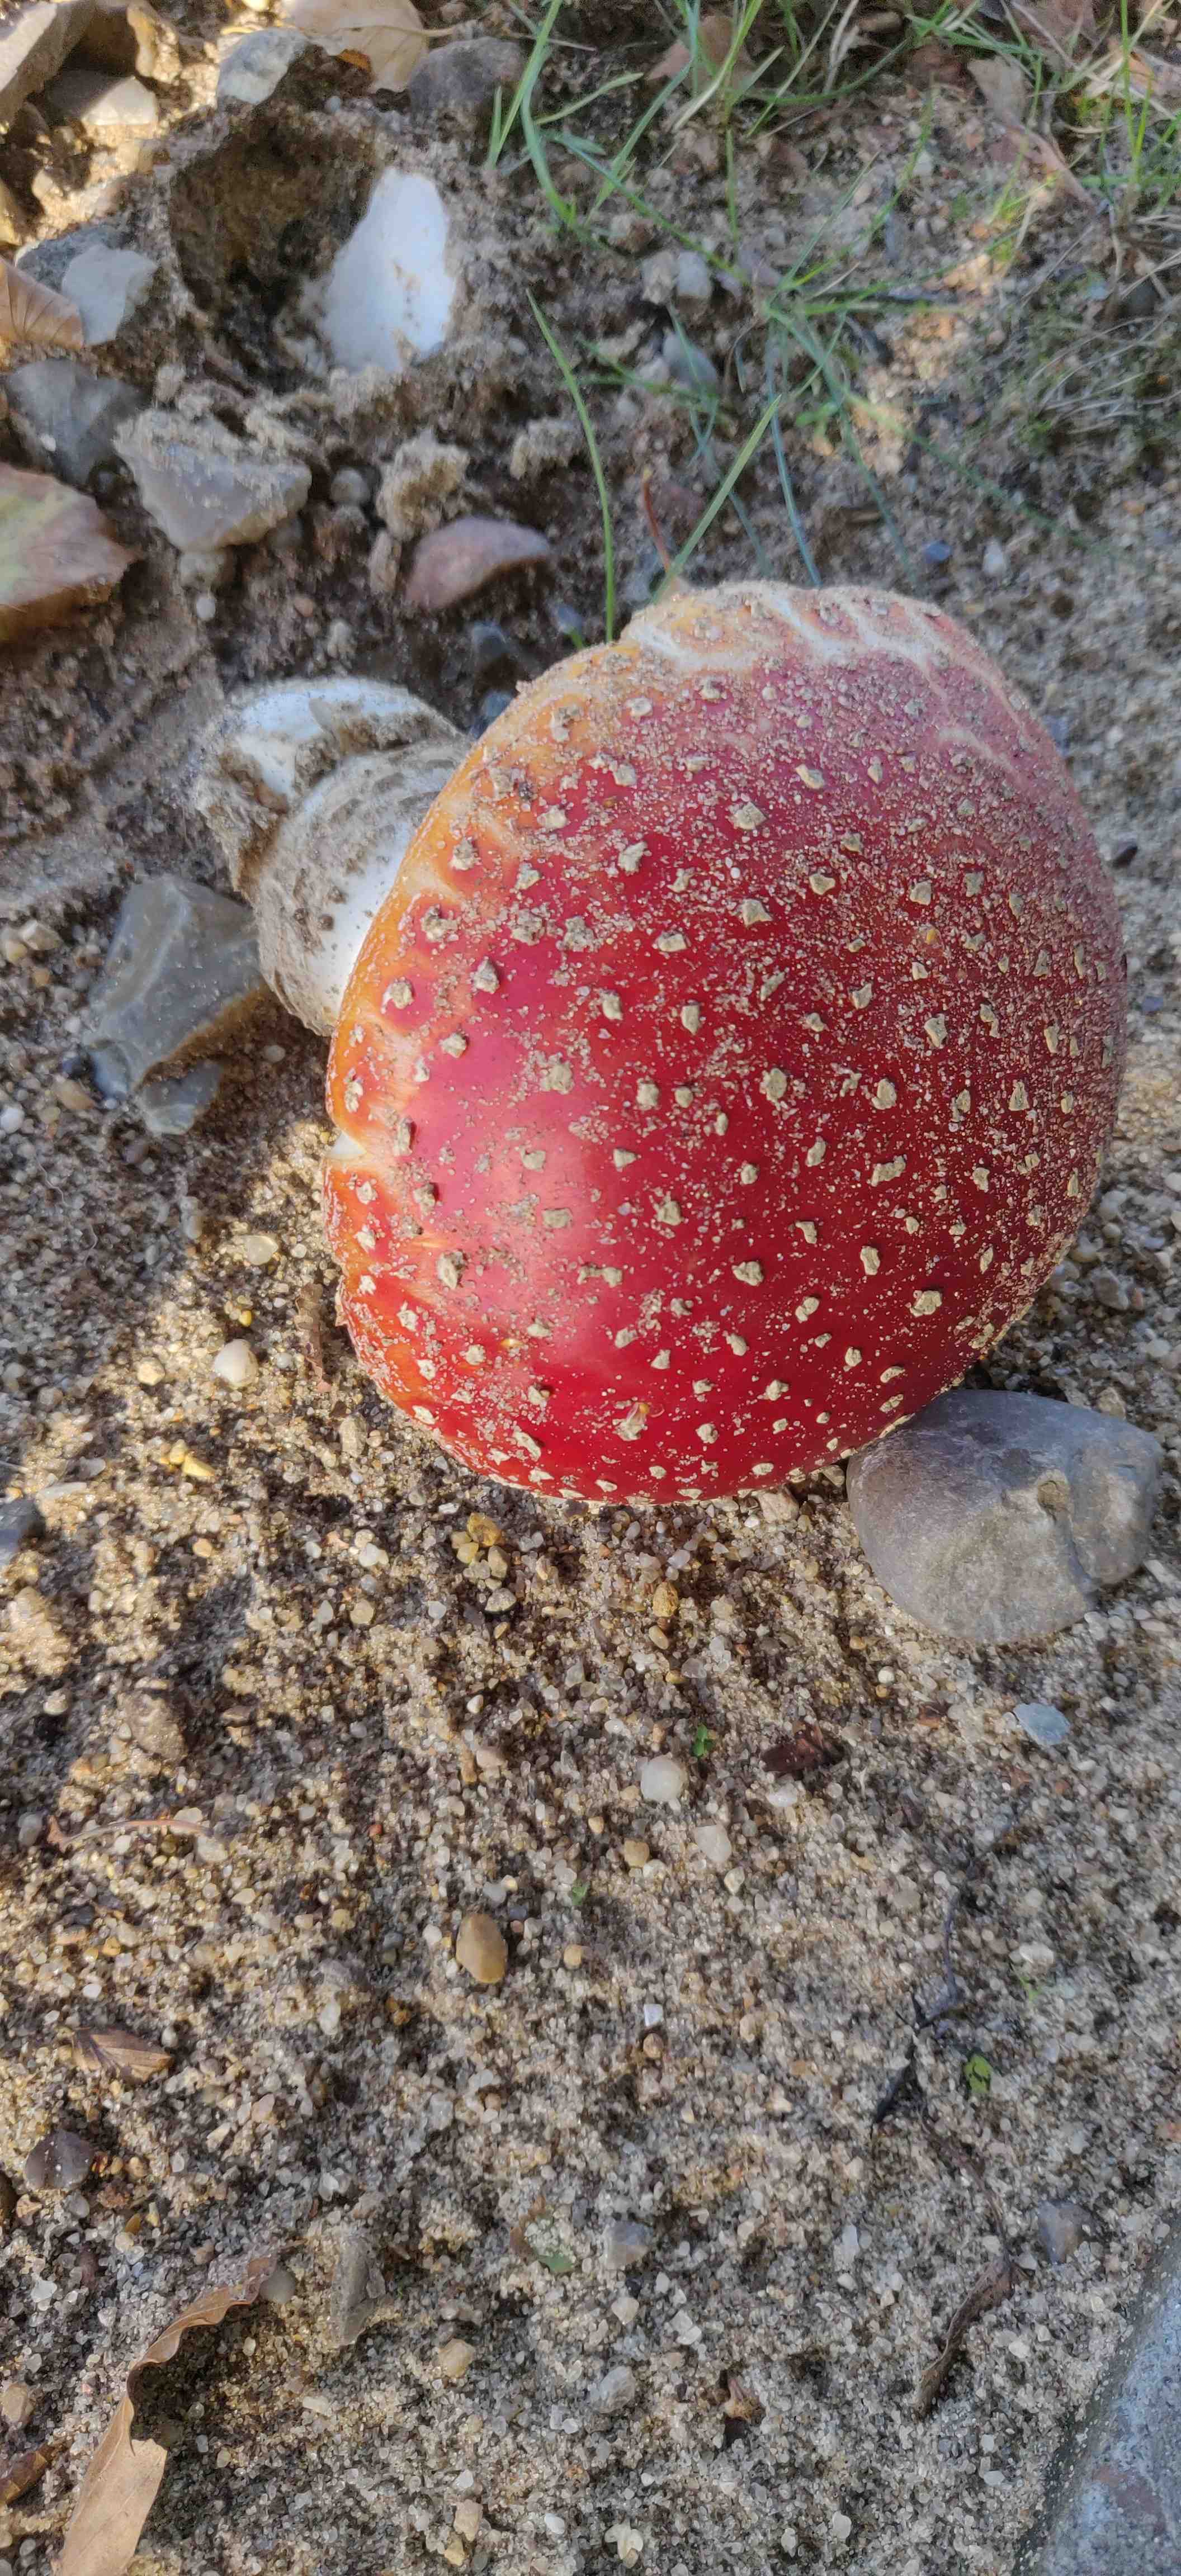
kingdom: Fungi
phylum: Basidiomycota
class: Agaricomycetes
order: Agaricales
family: Amanitaceae
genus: Amanita
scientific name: Amanita muscaria
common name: rød fluesvamp
